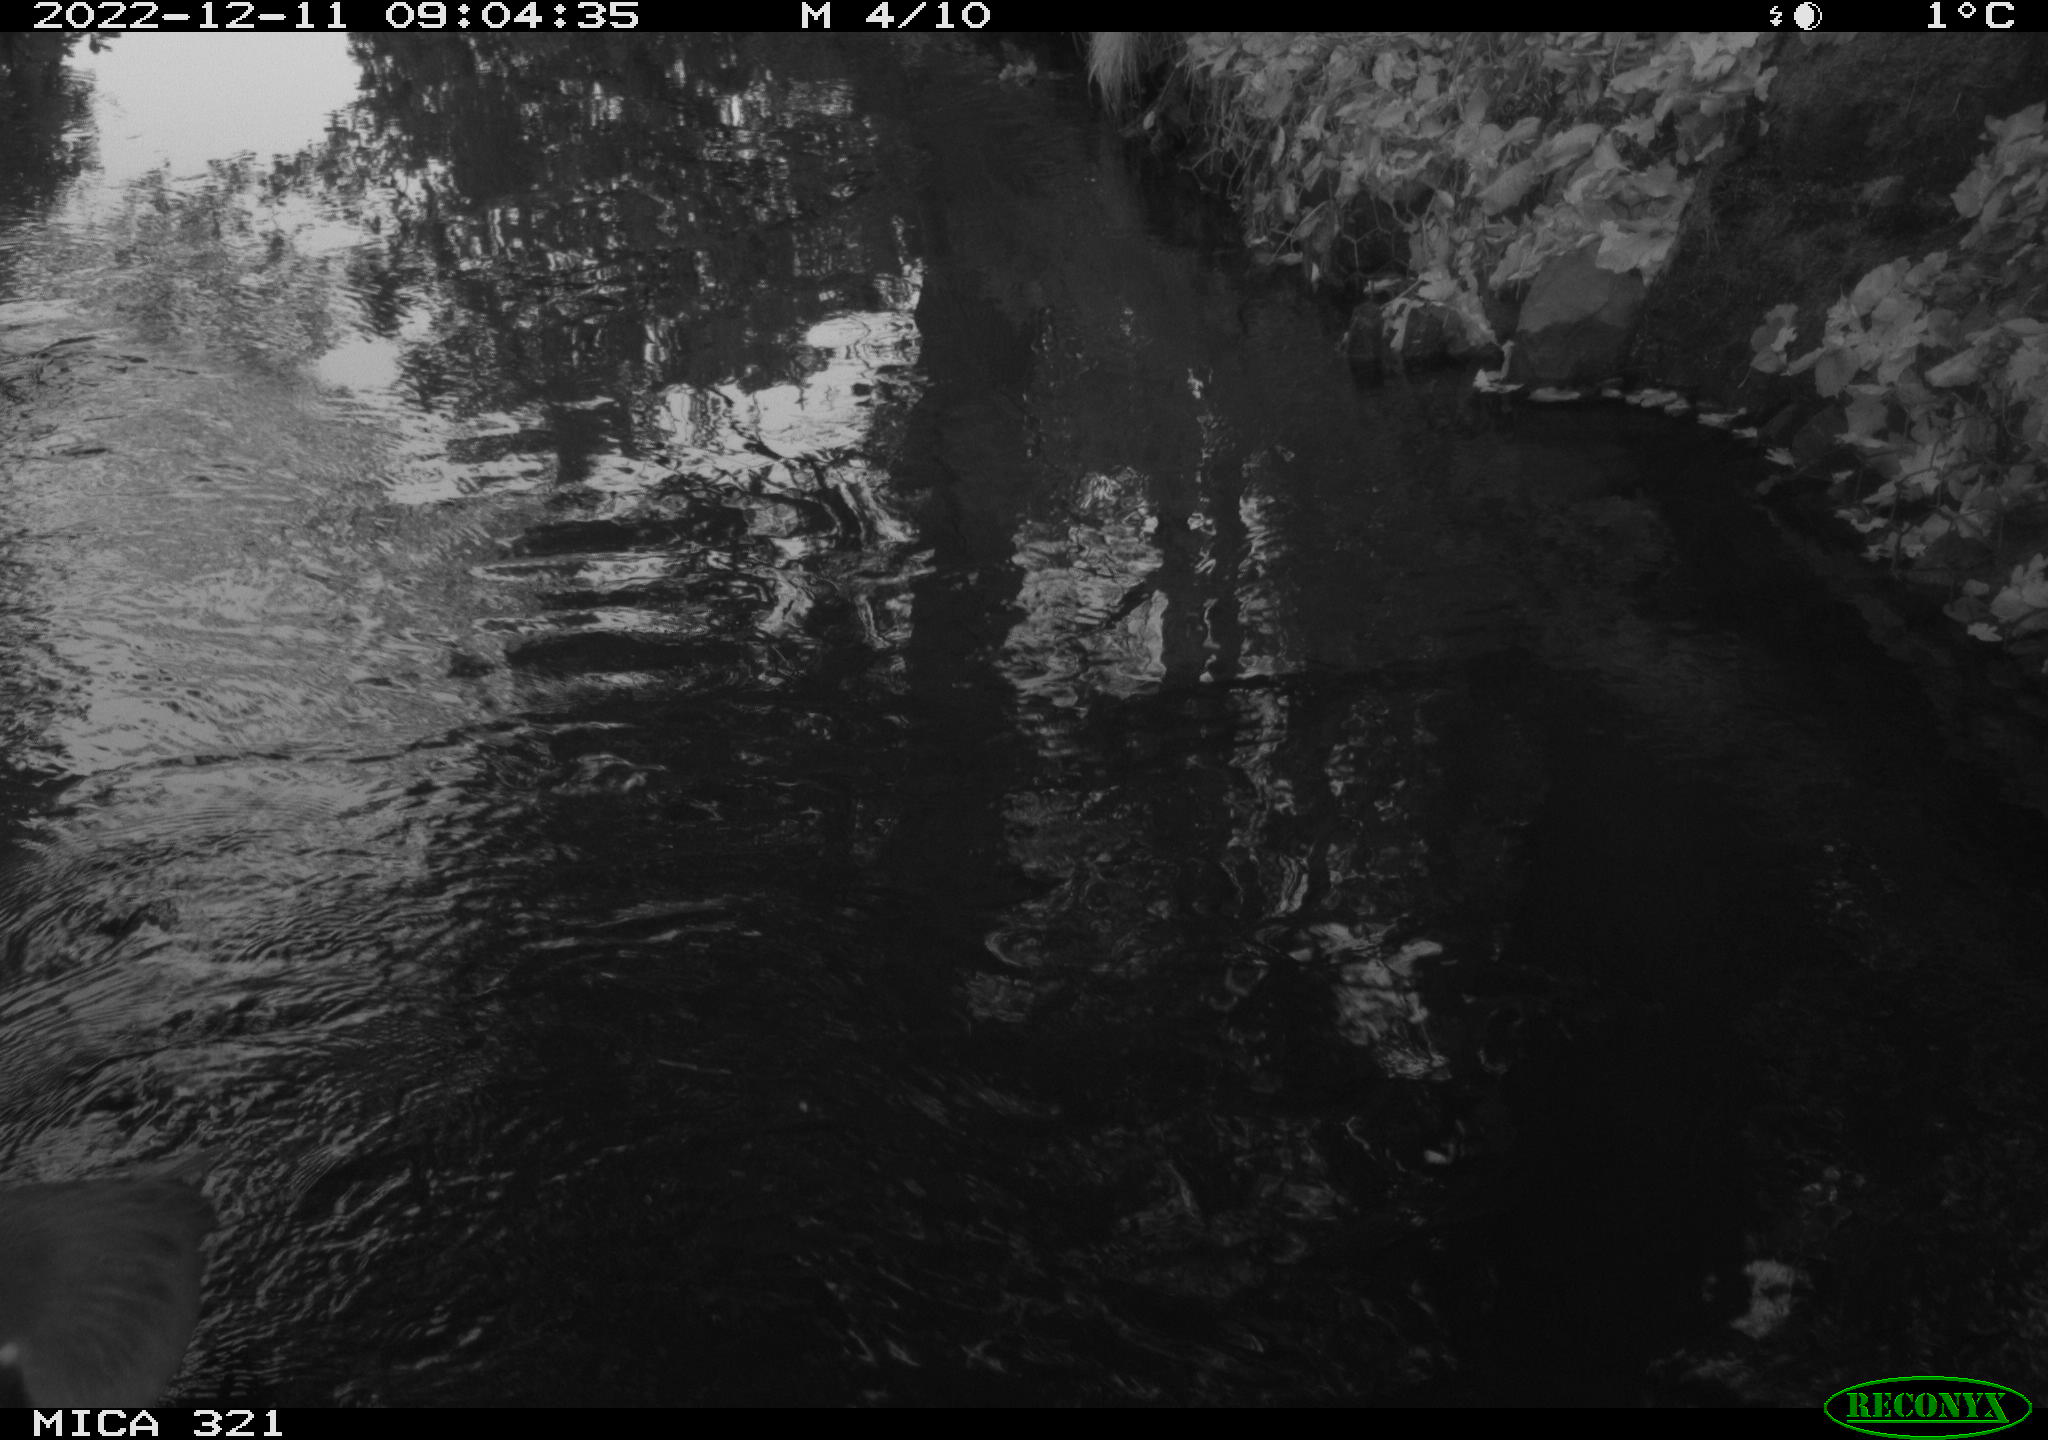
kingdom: Animalia
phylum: Chordata
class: Aves
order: Pelecaniformes
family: Ardeidae
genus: Ardea
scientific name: Ardea cinerea
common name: Grey heron
